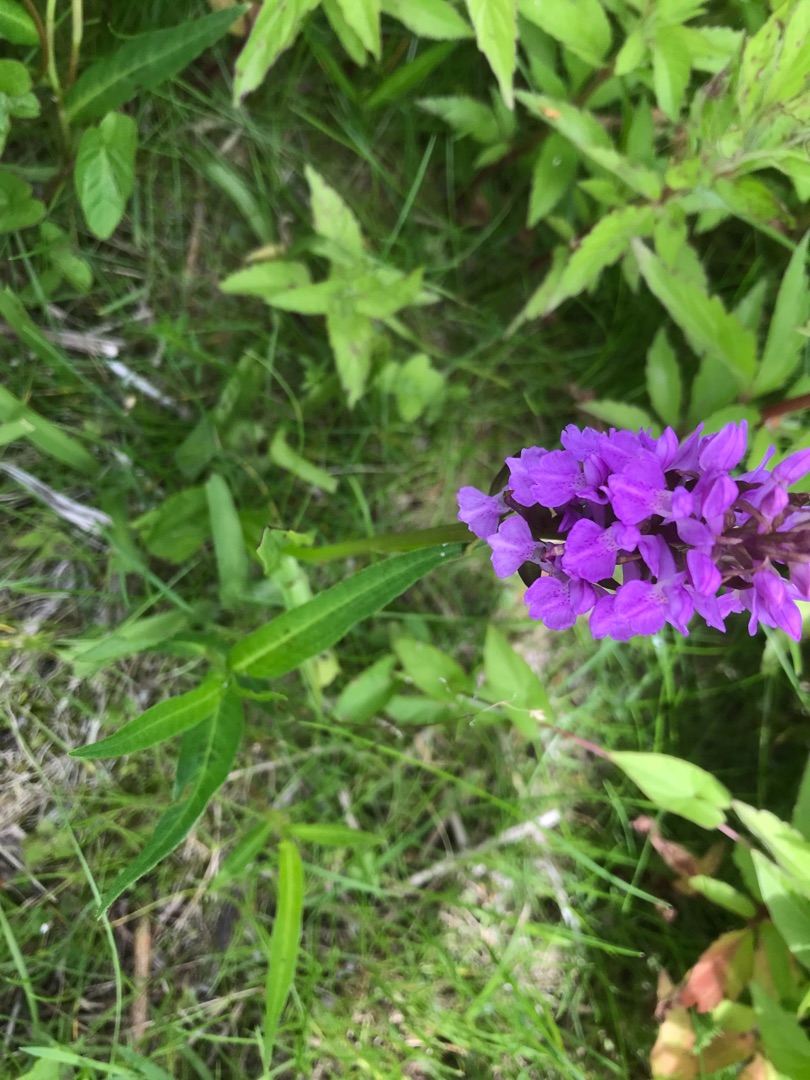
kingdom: Plantae
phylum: Tracheophyta
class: Liliopsida
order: Asparagales
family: Orchidaceae
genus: Dactylorhiza
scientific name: Dactylorhiza majalis
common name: Purpur-gøgeurt
